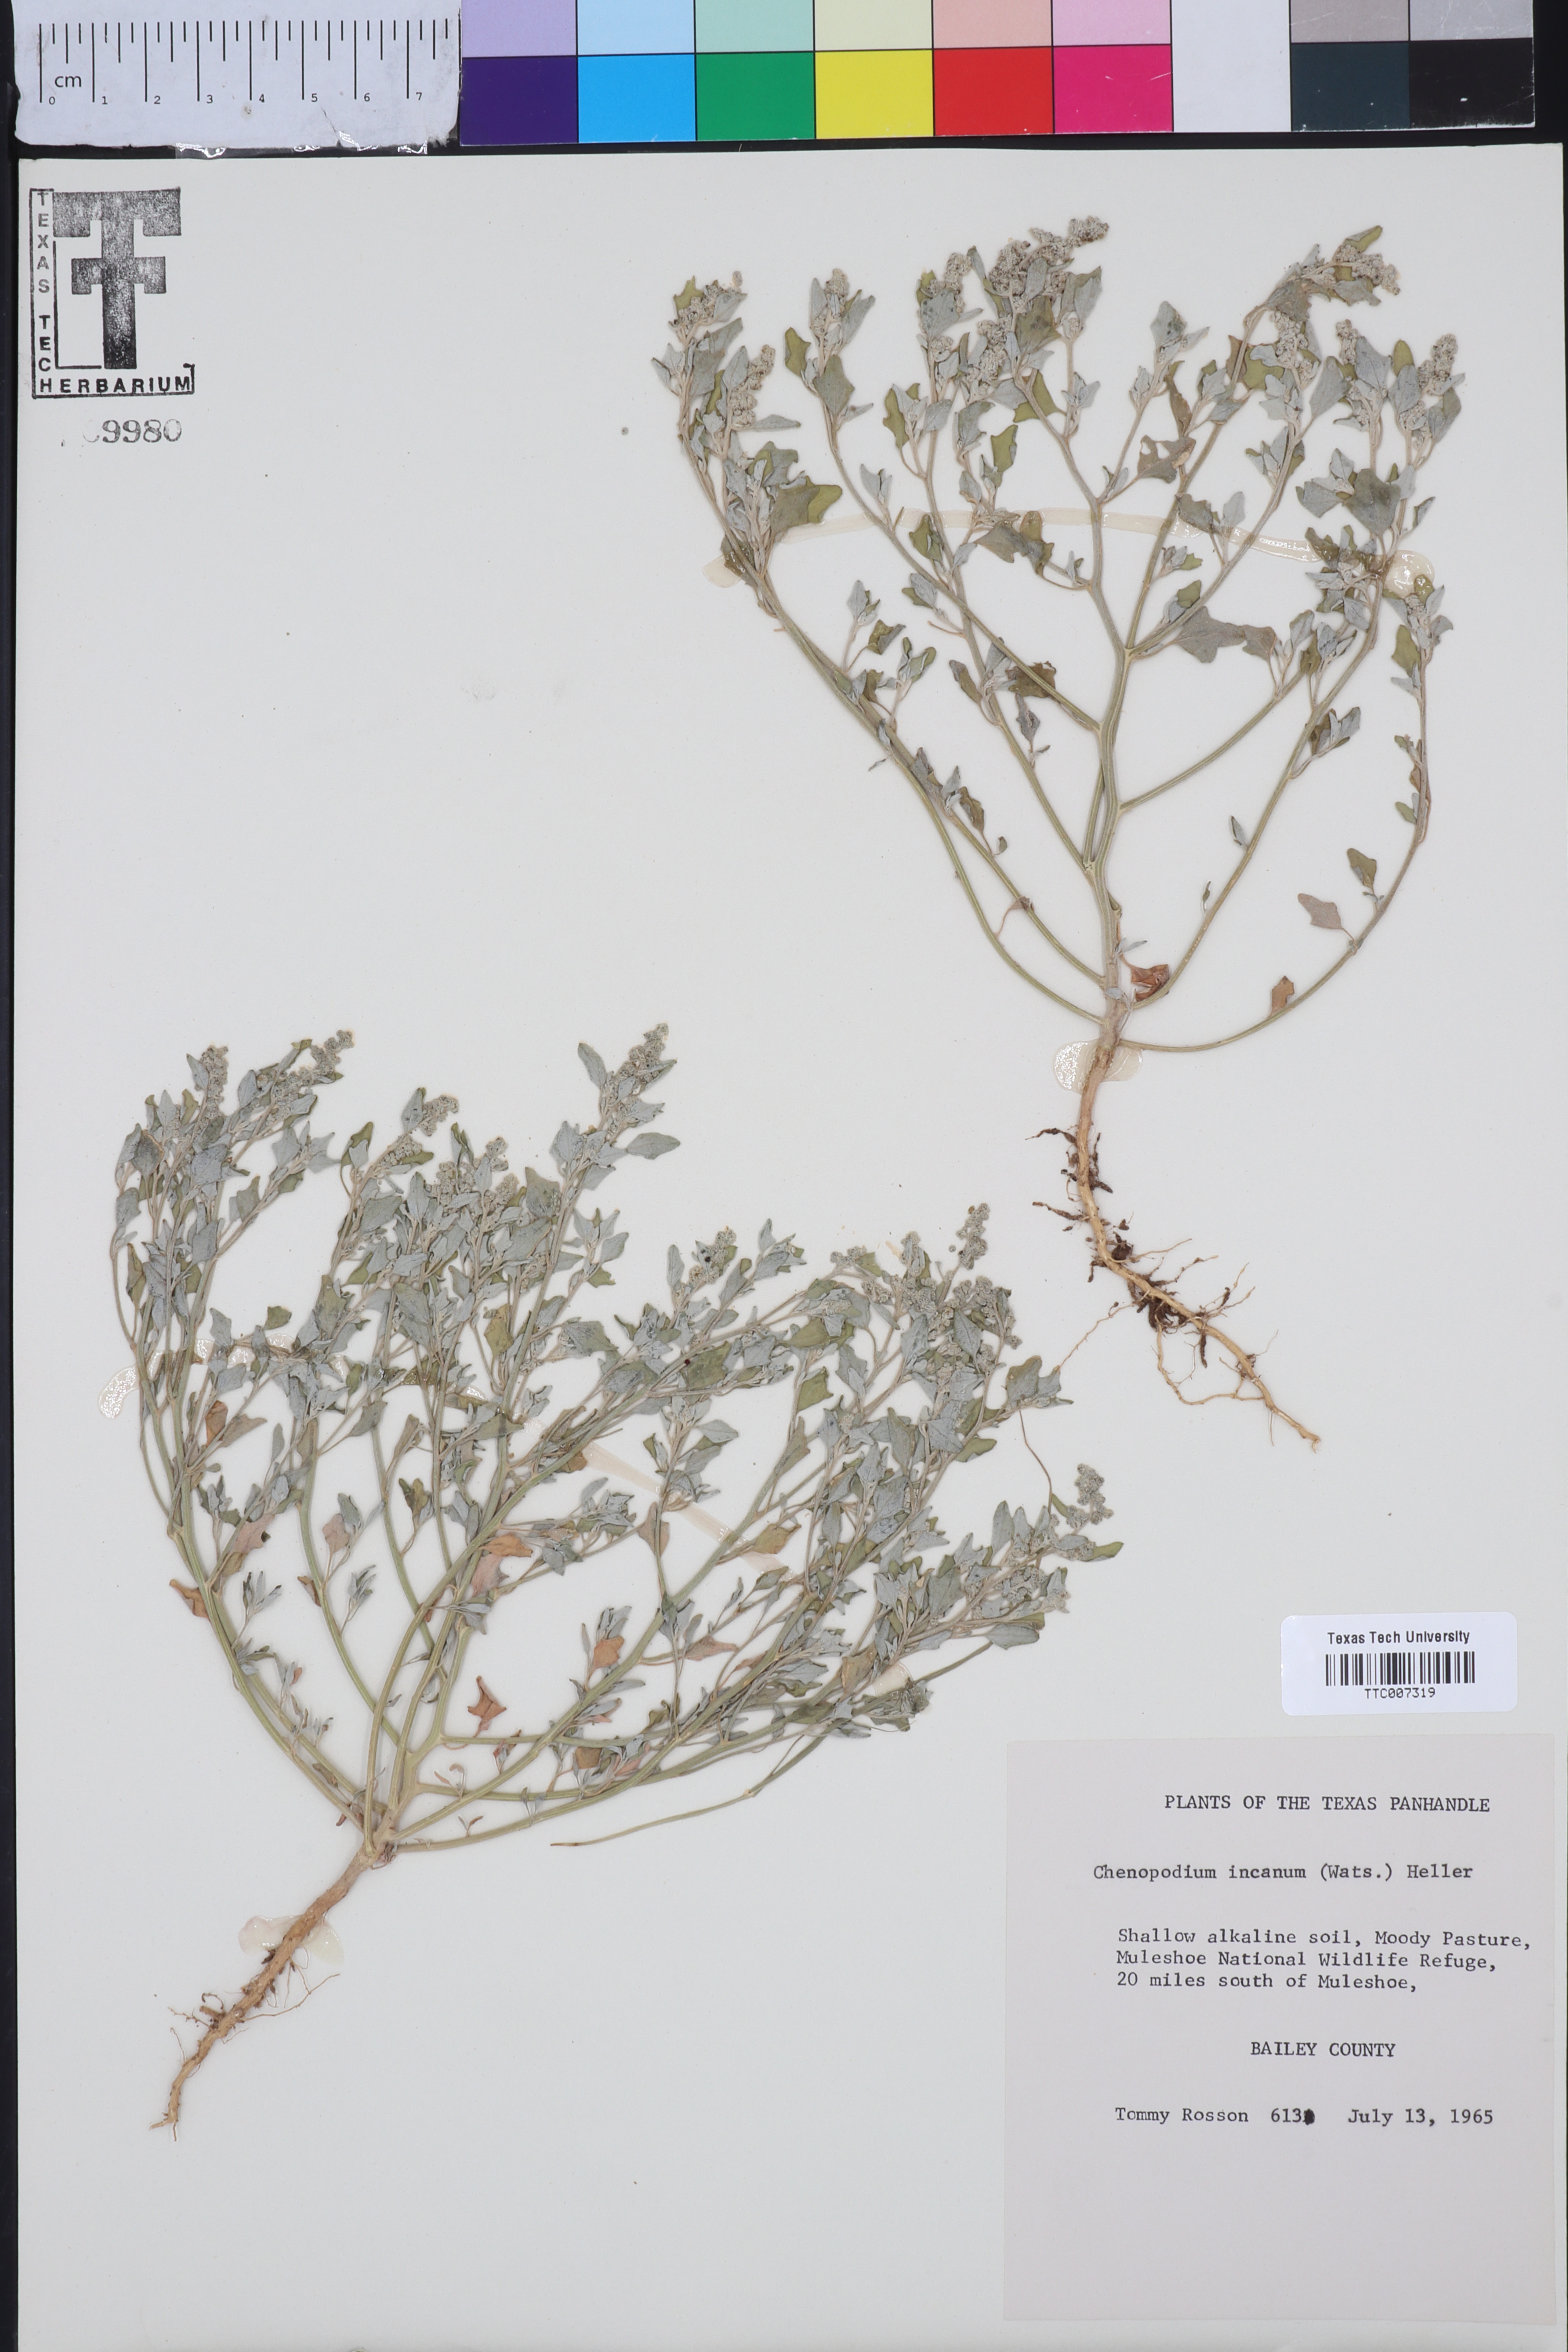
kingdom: Plantae
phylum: Tracheophyta
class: Magnoliopsida
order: Caryophyllales
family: Amaranthaceae
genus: Chenopodium
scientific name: Chenopodium incanum
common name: Hoary goosefoot
